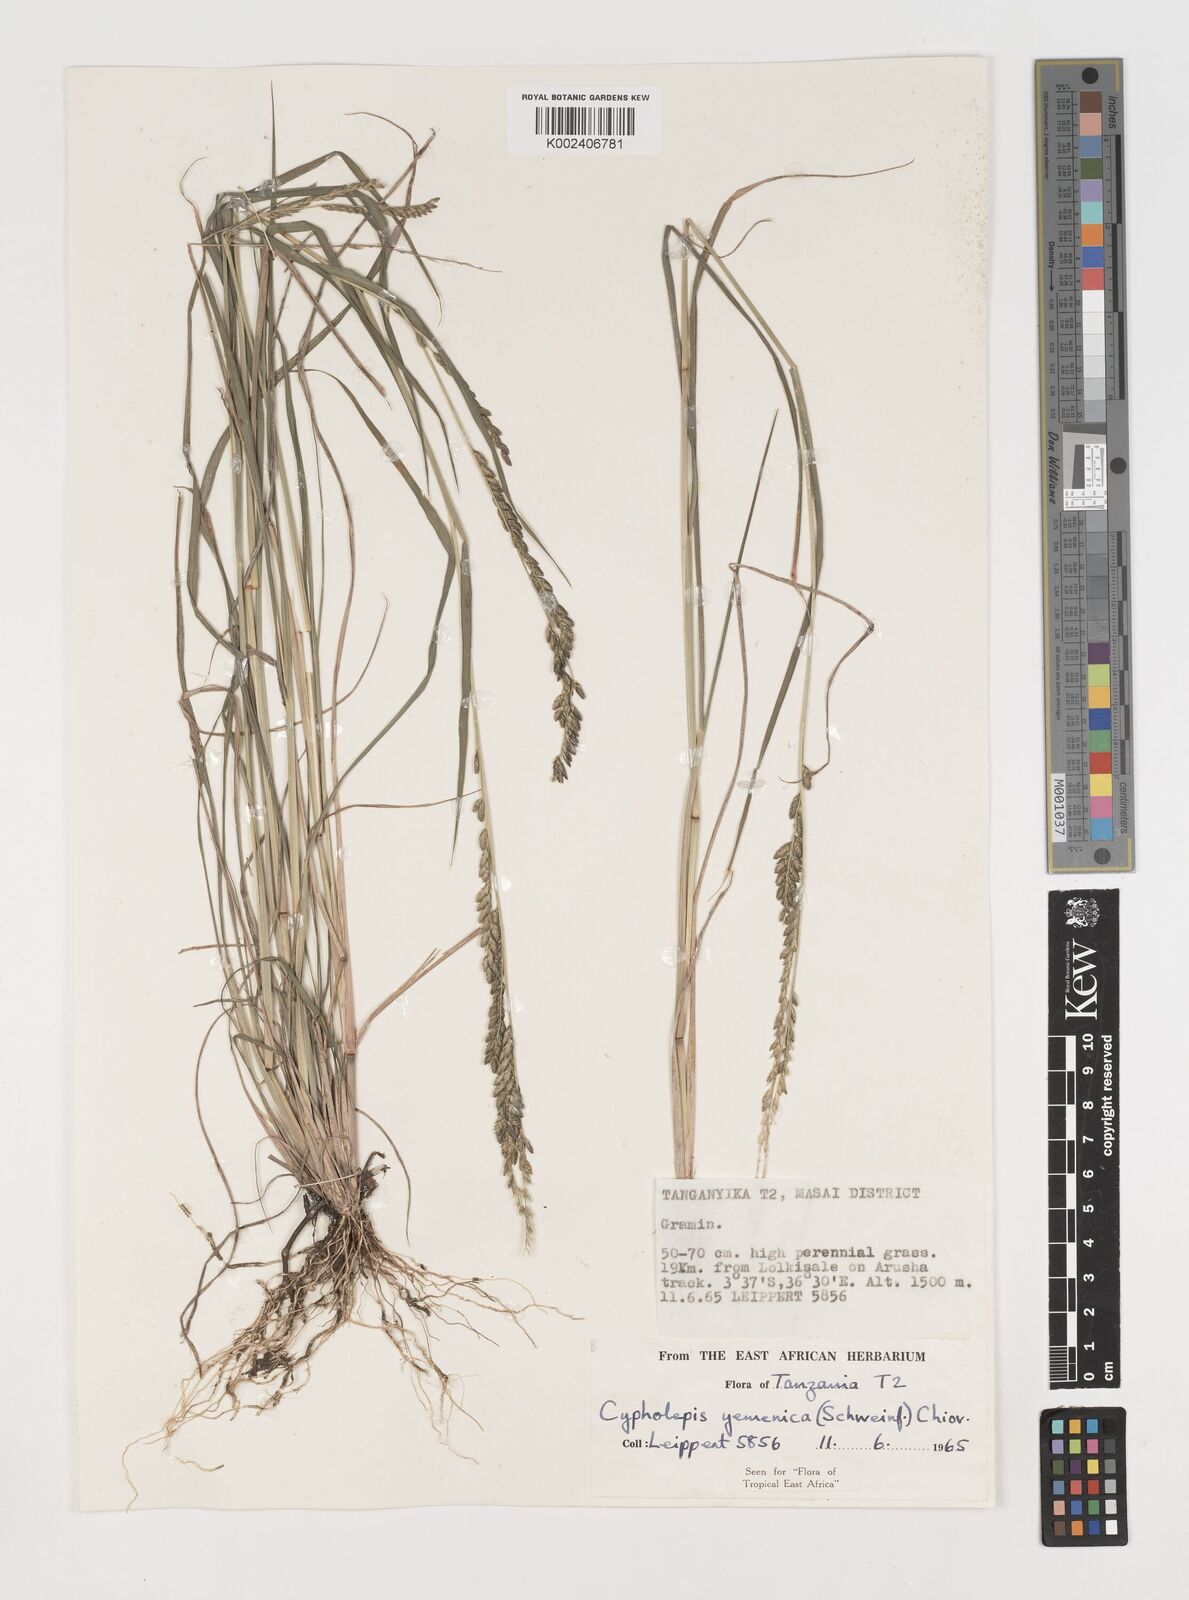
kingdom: Plantae
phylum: Tracheophyta
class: Liliopsida
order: Poales
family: Poaceae
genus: Disakisperma
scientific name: Disakisperma yemenicum
